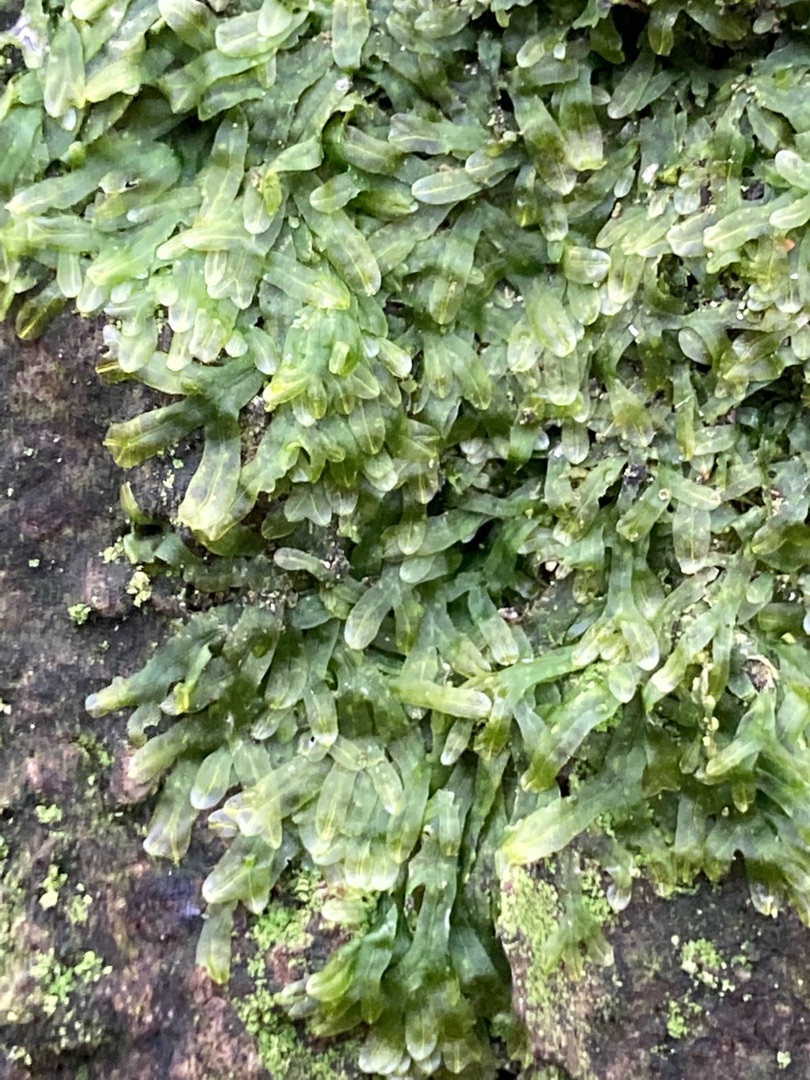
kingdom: Plantae
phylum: Marchantiophyta
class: Jungermanniopsida
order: Metzgeriales
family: Metzgeriaceae
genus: Metzgeria
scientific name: Metzgeria furcata
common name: Almindelig gaffelløv
